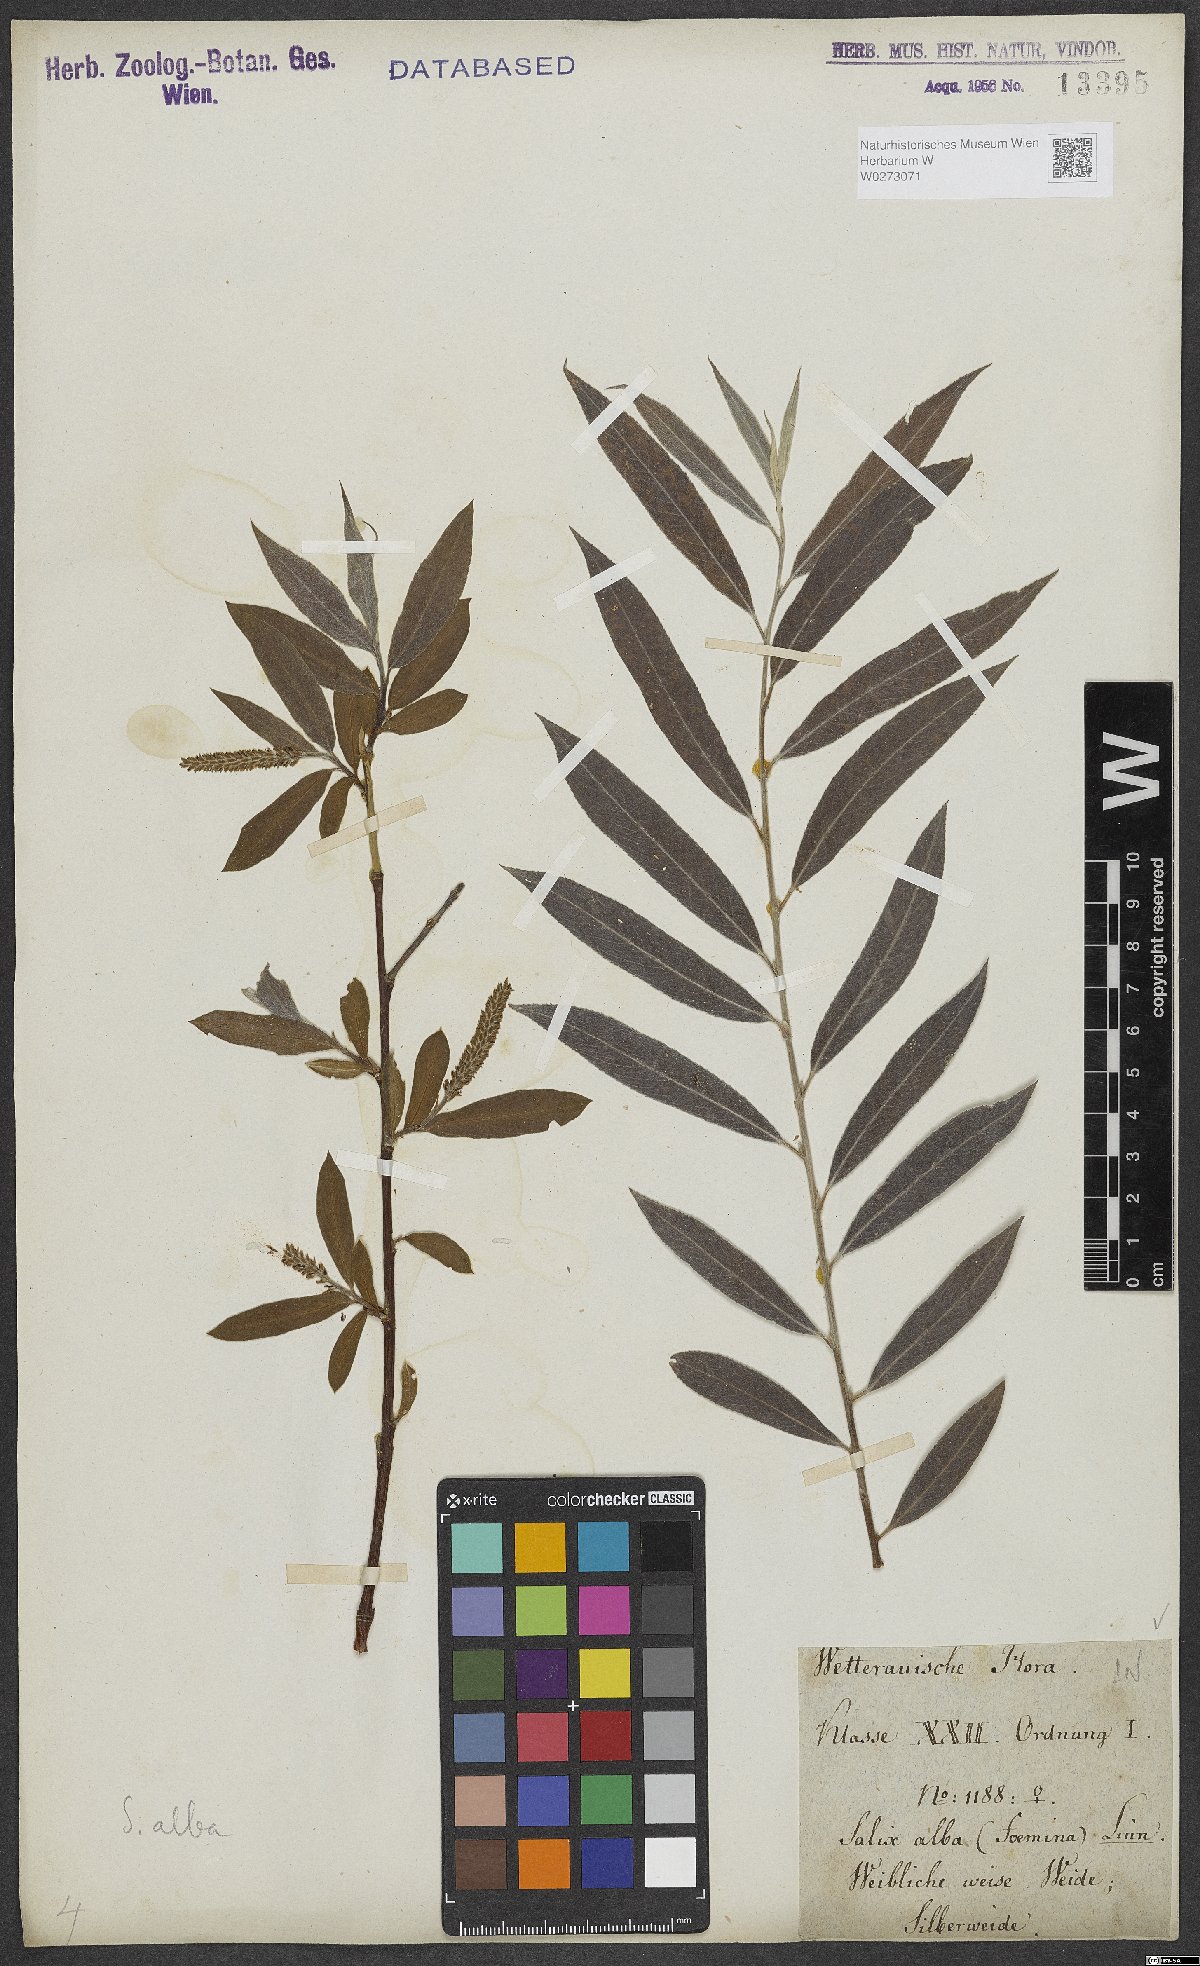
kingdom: Plantae
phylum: Tracheophyta
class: Magnoliopsida
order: Malpighiales
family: Salicaceae
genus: Salix
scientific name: Salix alba
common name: White willow
